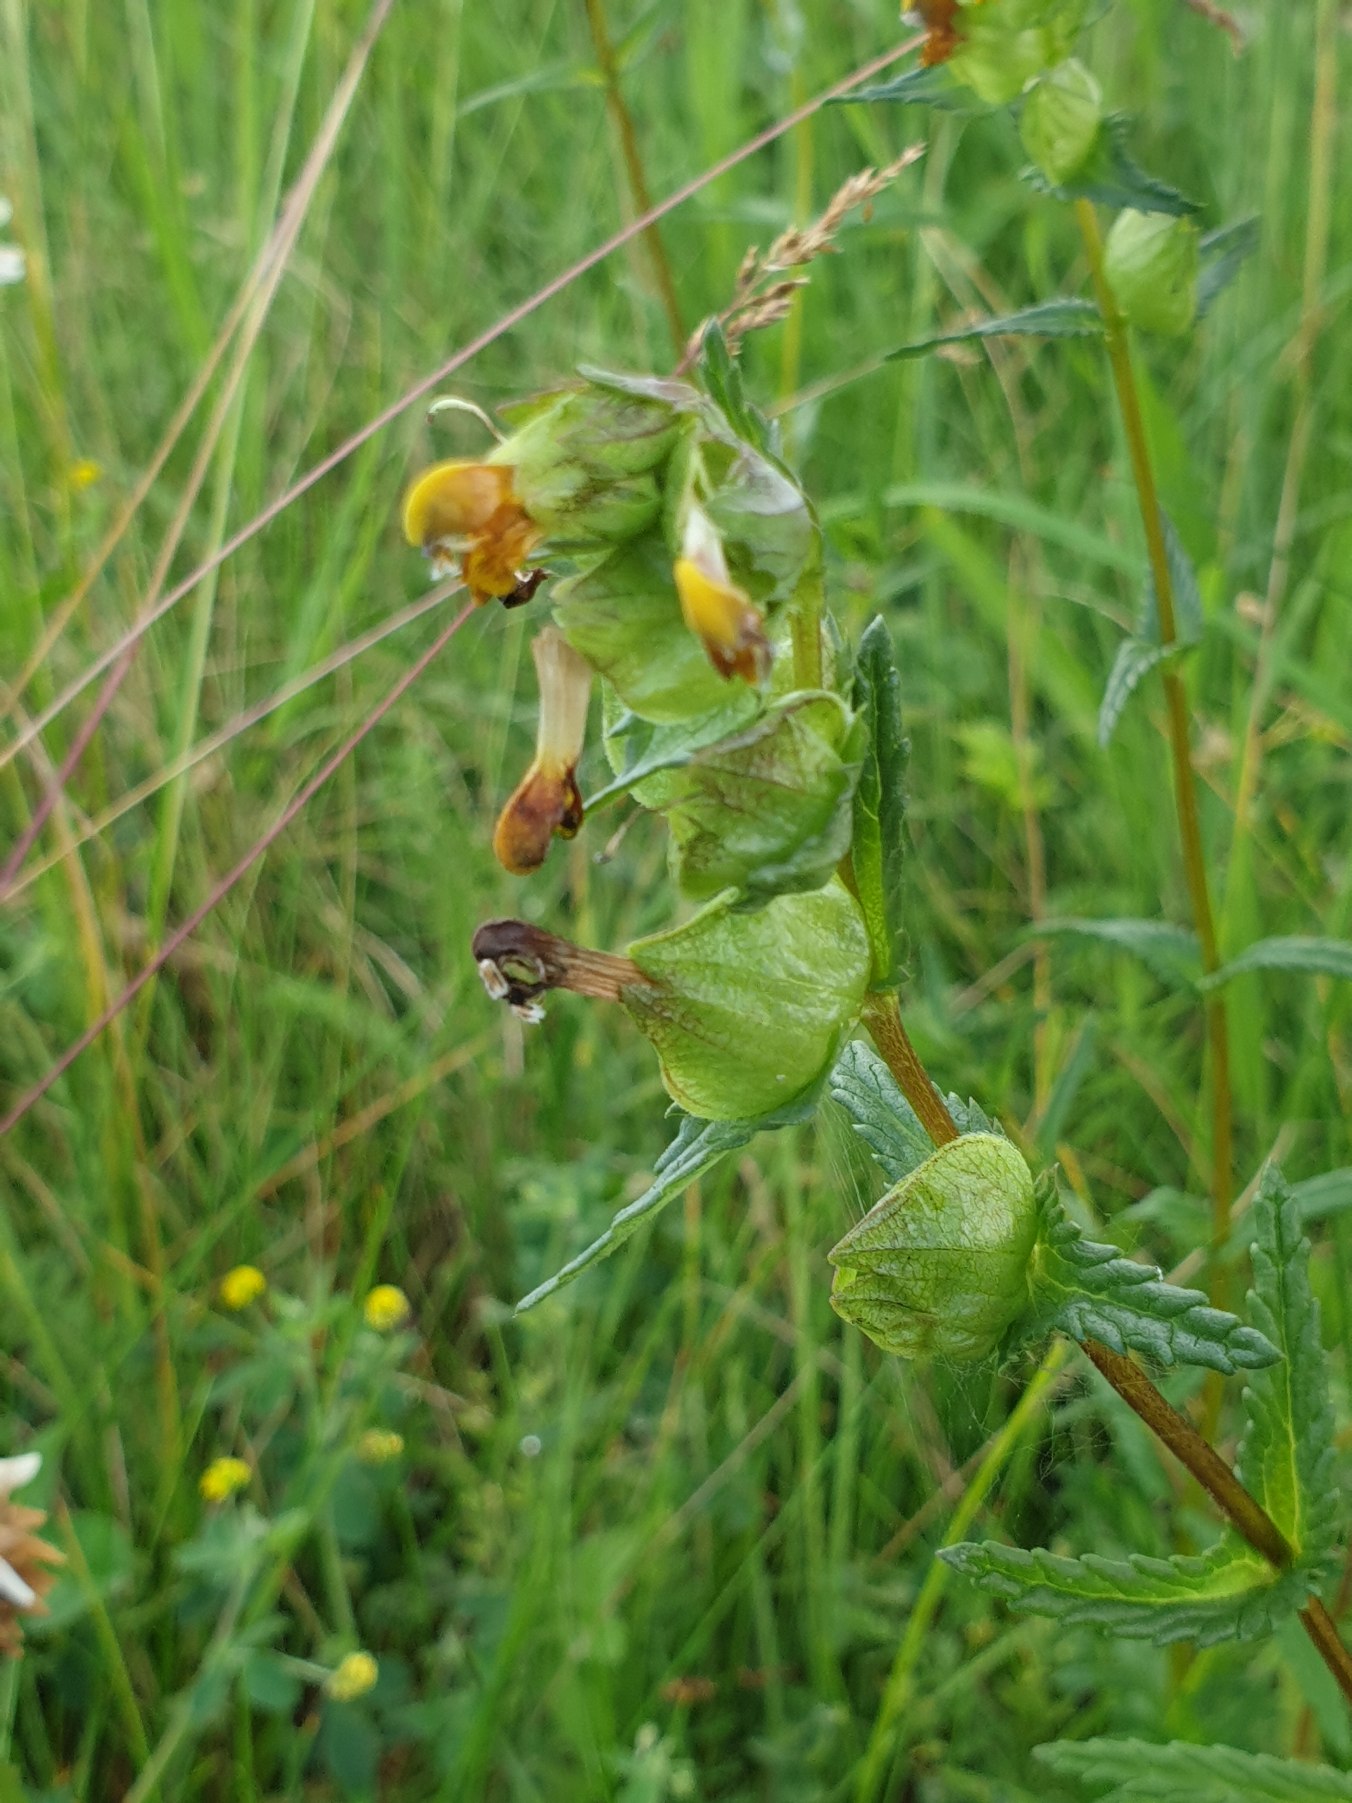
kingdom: Plantae
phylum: Tracheophyta
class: Magnoliopsida
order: Lamiales
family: Orobanchaceae
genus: Rhinanthus
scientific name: Rhinanthus minor
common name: Liden skjaller
